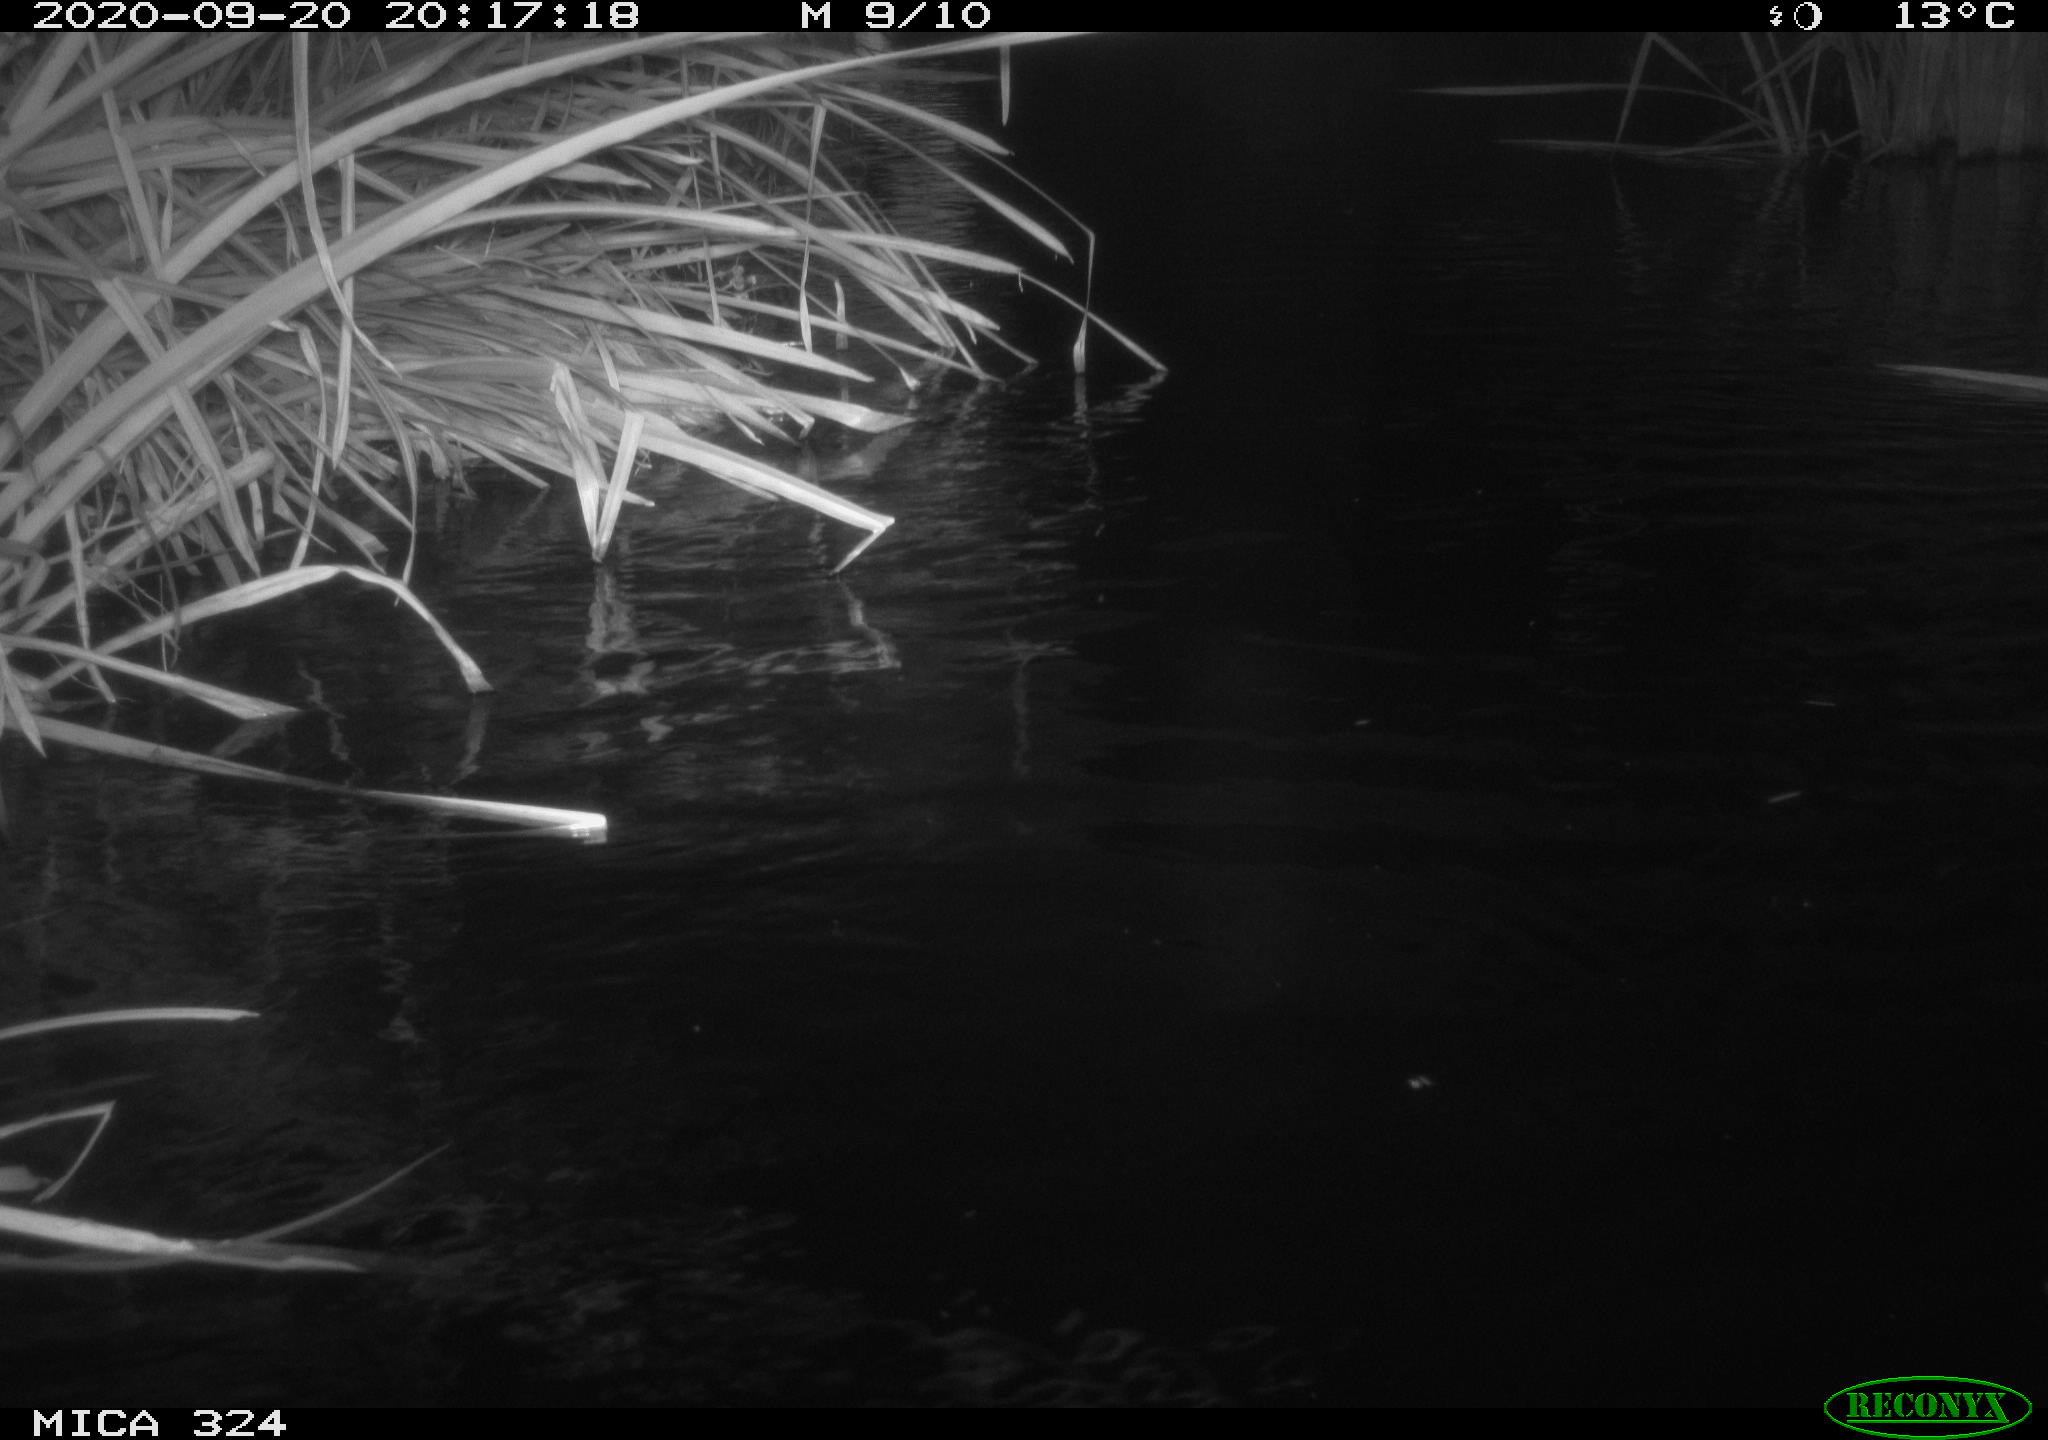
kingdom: Animalia
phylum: Chordata
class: Mammalia
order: Rodentia
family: Cricetidae
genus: Ondatra
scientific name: Ondatra zibethicus
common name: Muskrat
